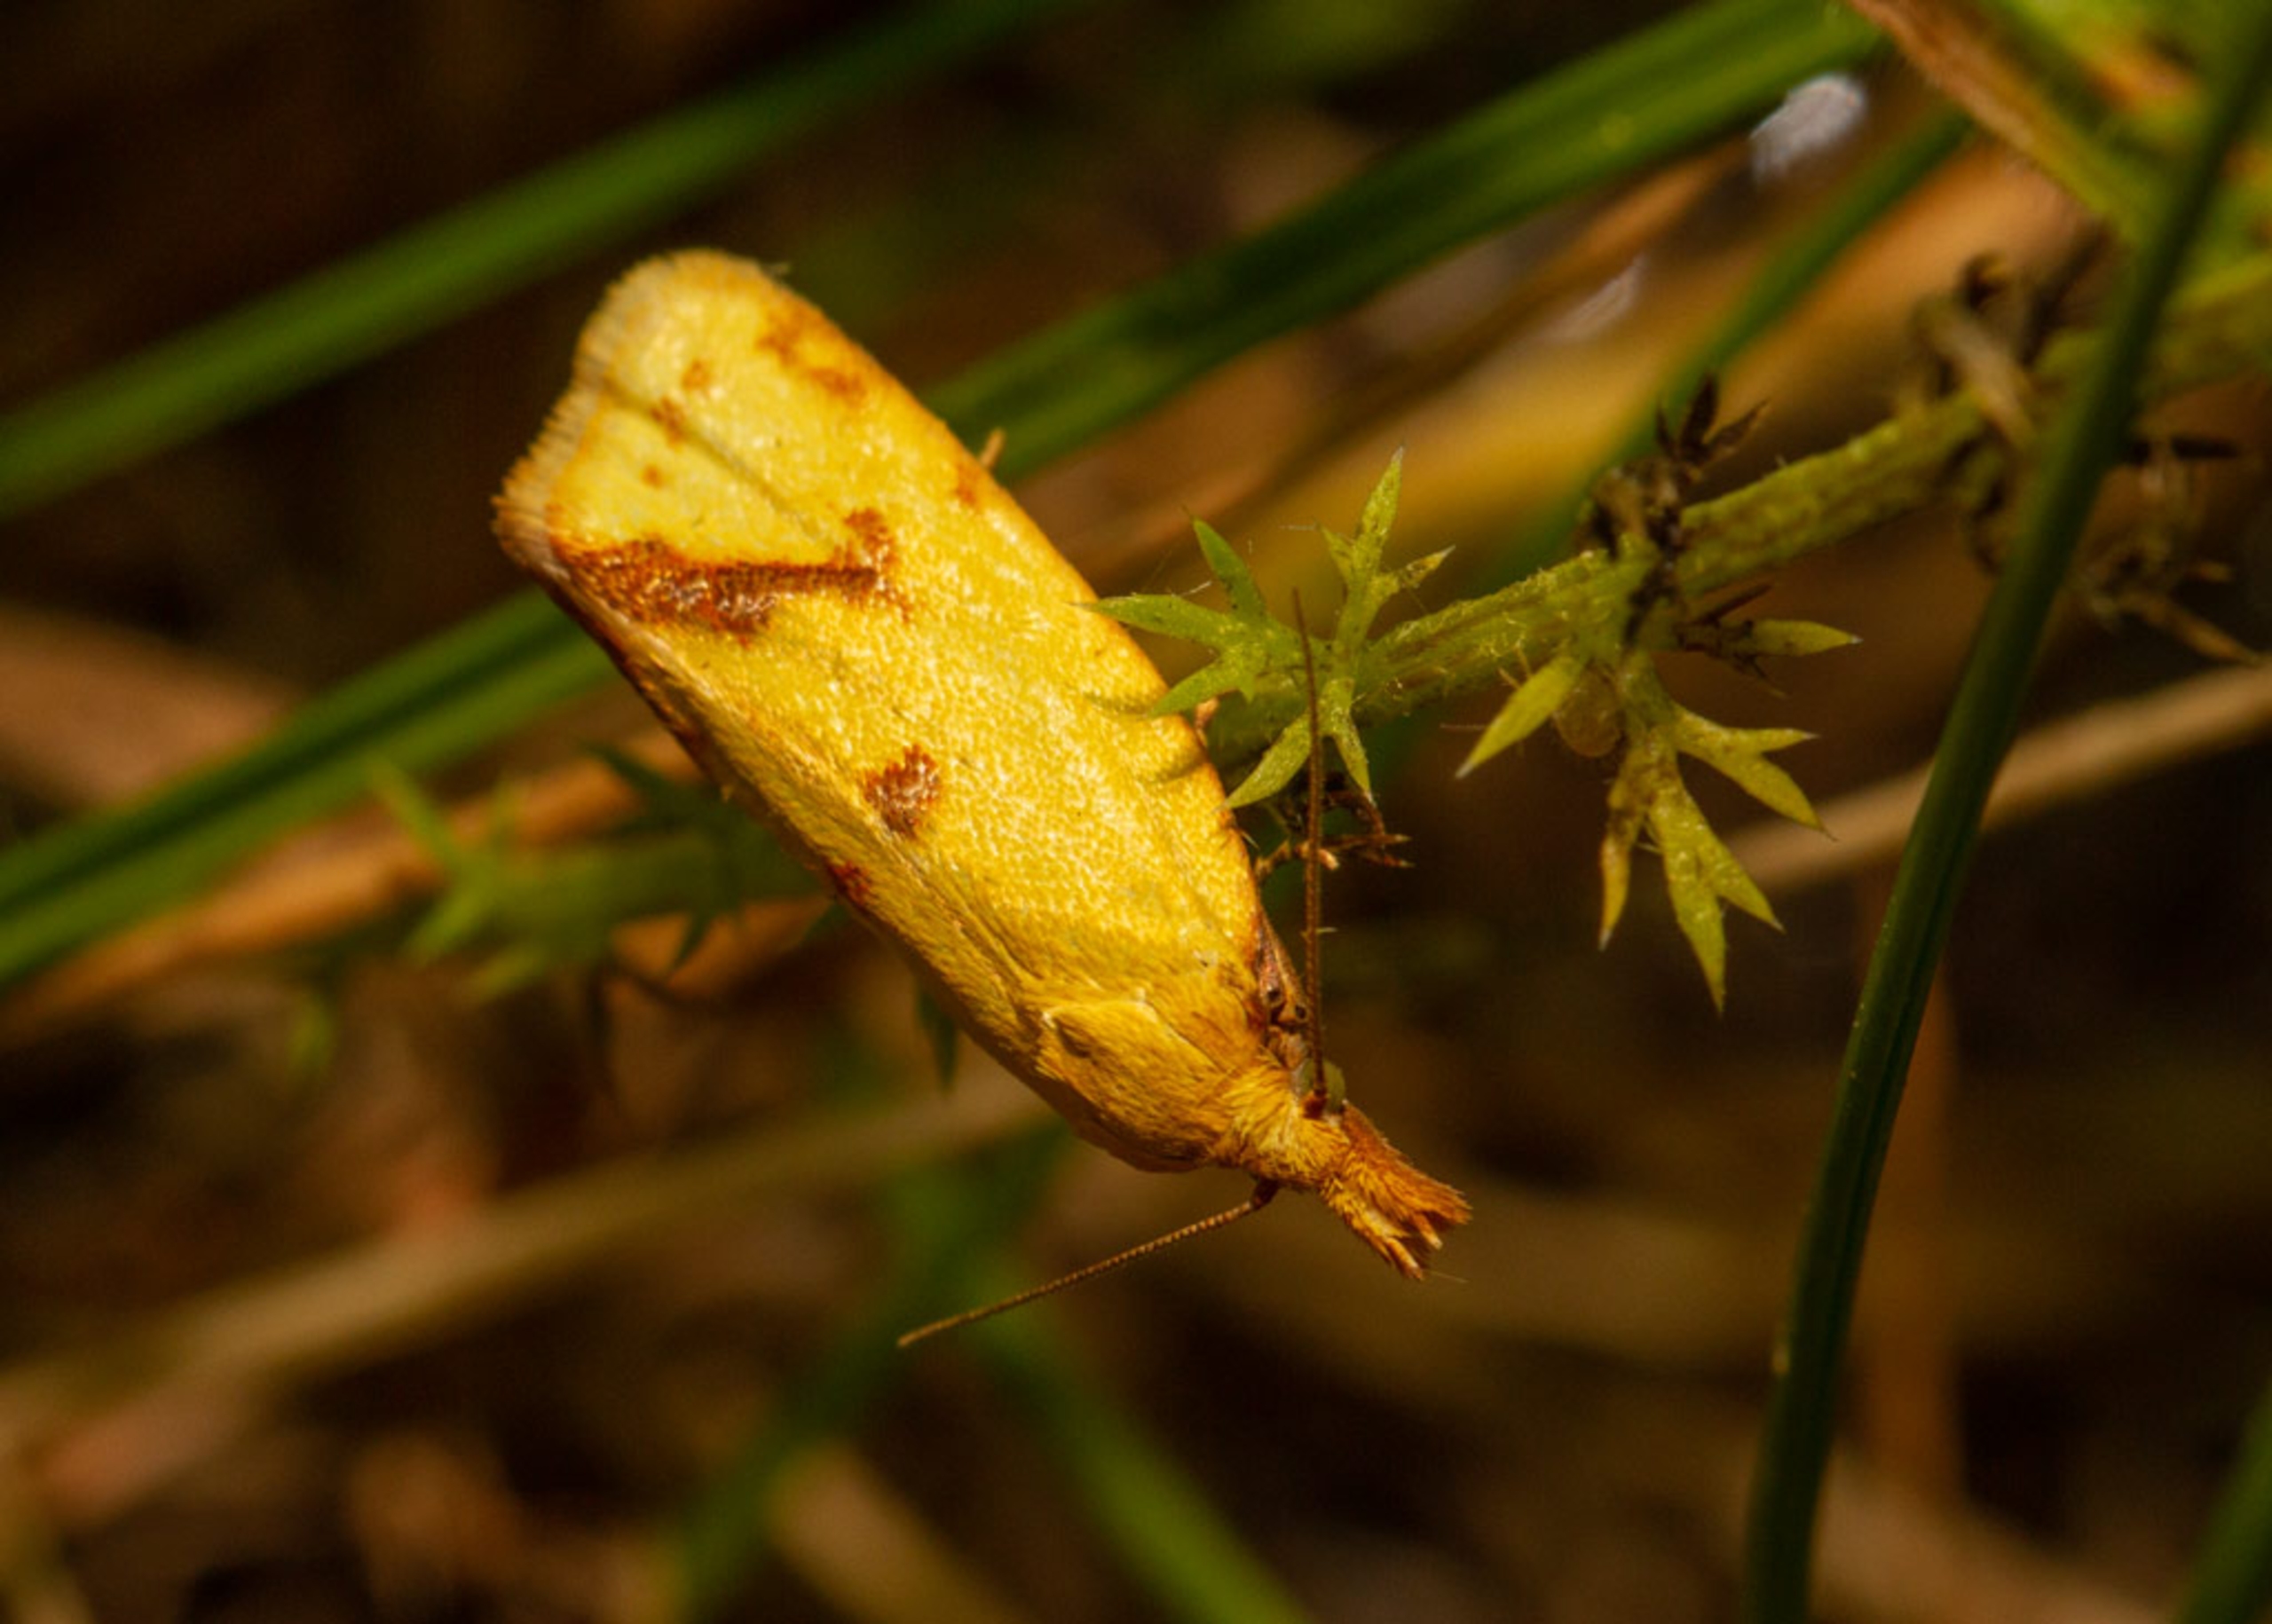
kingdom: Animalia
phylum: Arthropoda
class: Insecta
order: Lepidoptera
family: Tortricidae
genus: Agapeta
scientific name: Agapeta hamana
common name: Tidselgulvikler
